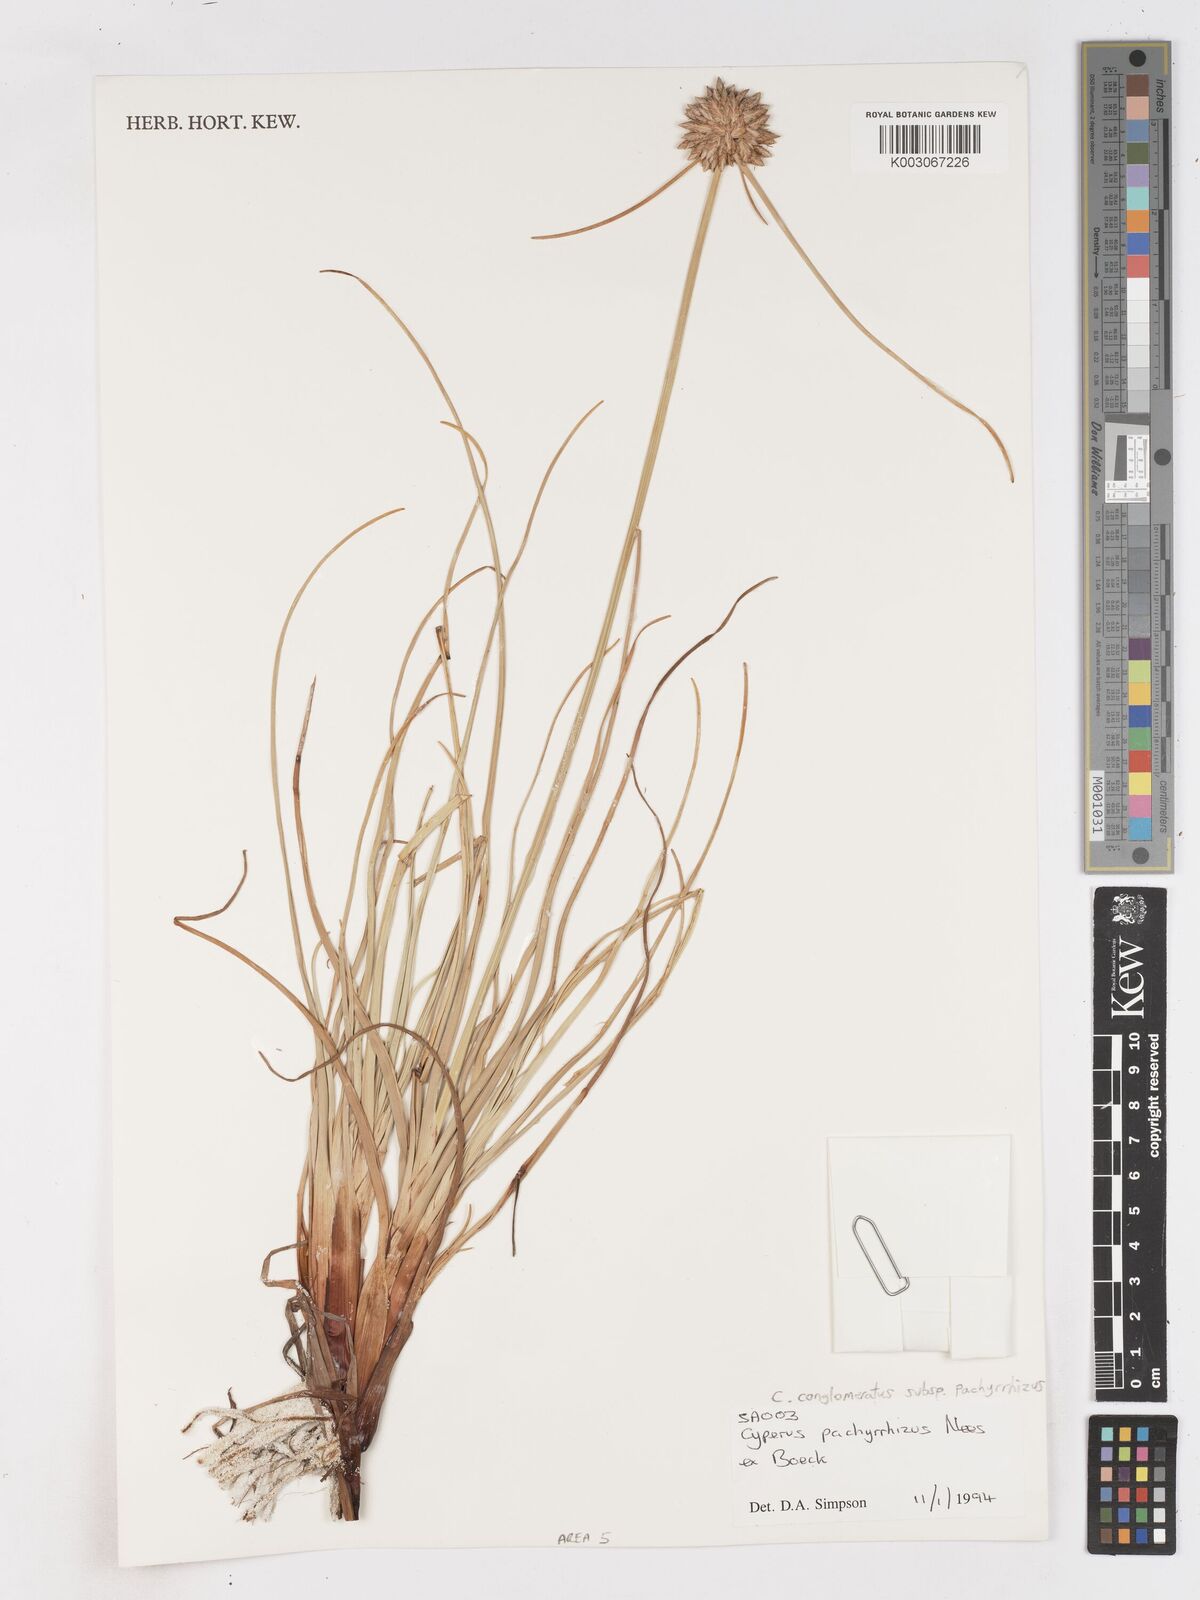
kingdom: Plantae
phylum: Tracheophyta
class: Liliopsida
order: Poales
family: Cyperaceae
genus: Cyperus
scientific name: Cyperus pachyrhizus
